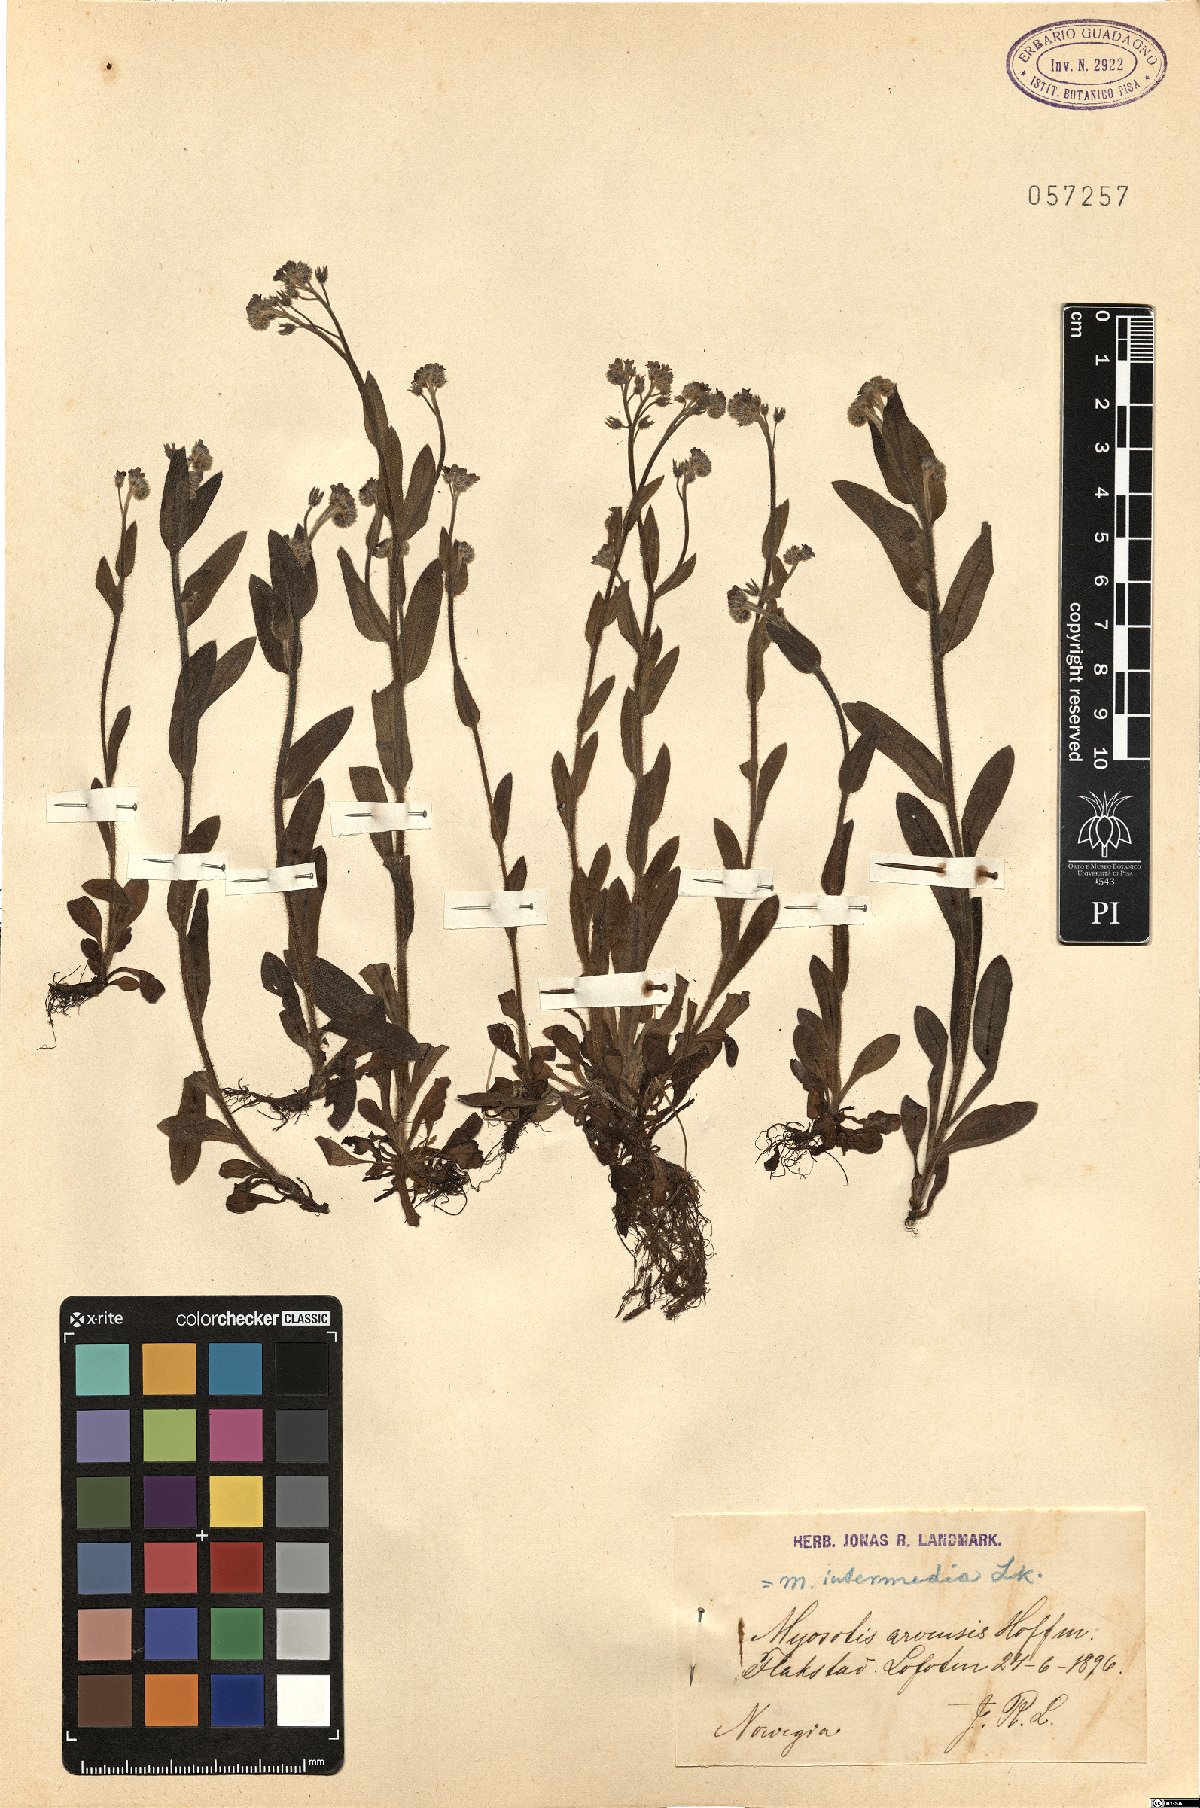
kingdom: Plantae
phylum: Tracheophyta
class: Magnoliopsida
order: Boraginales
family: Boraginaceae
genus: Myosotis
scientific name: Myosotis arvensis
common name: Field forget-me-not
